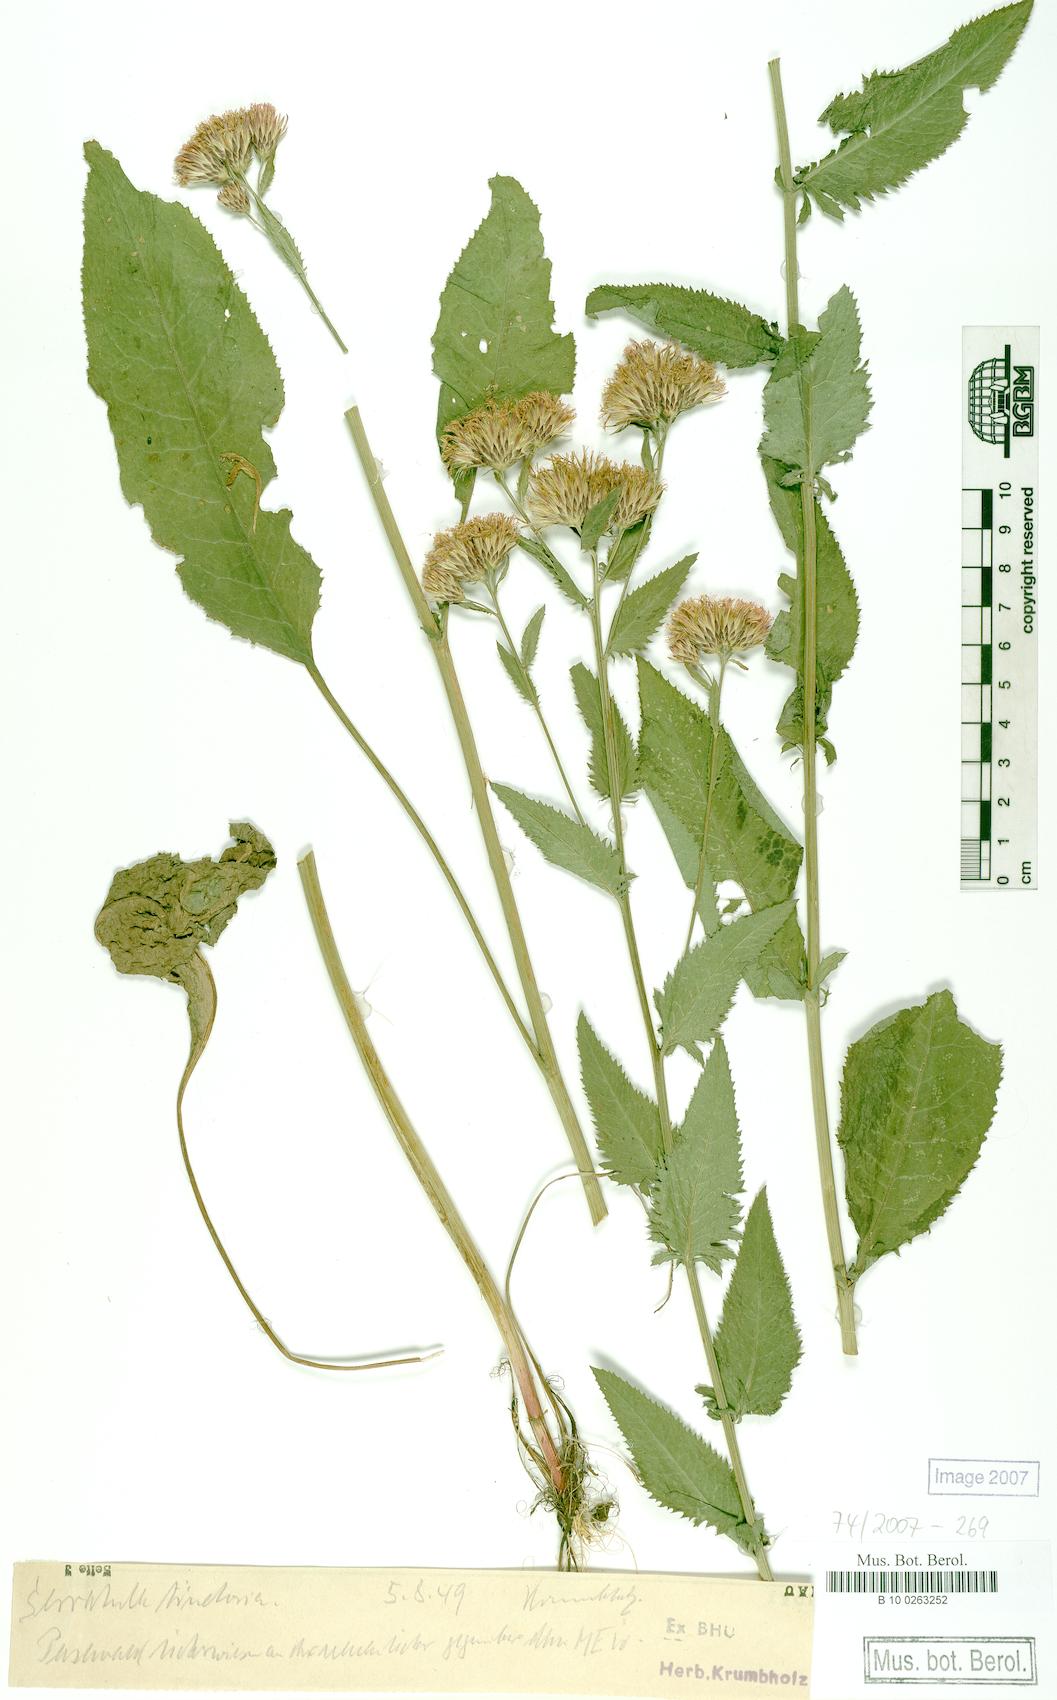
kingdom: Plantae
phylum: Tracheophyta
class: Magnoliopsida
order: Asterales
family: Asteraceae
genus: Serratula
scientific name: Serratula tinctoria
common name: Saw-wort
